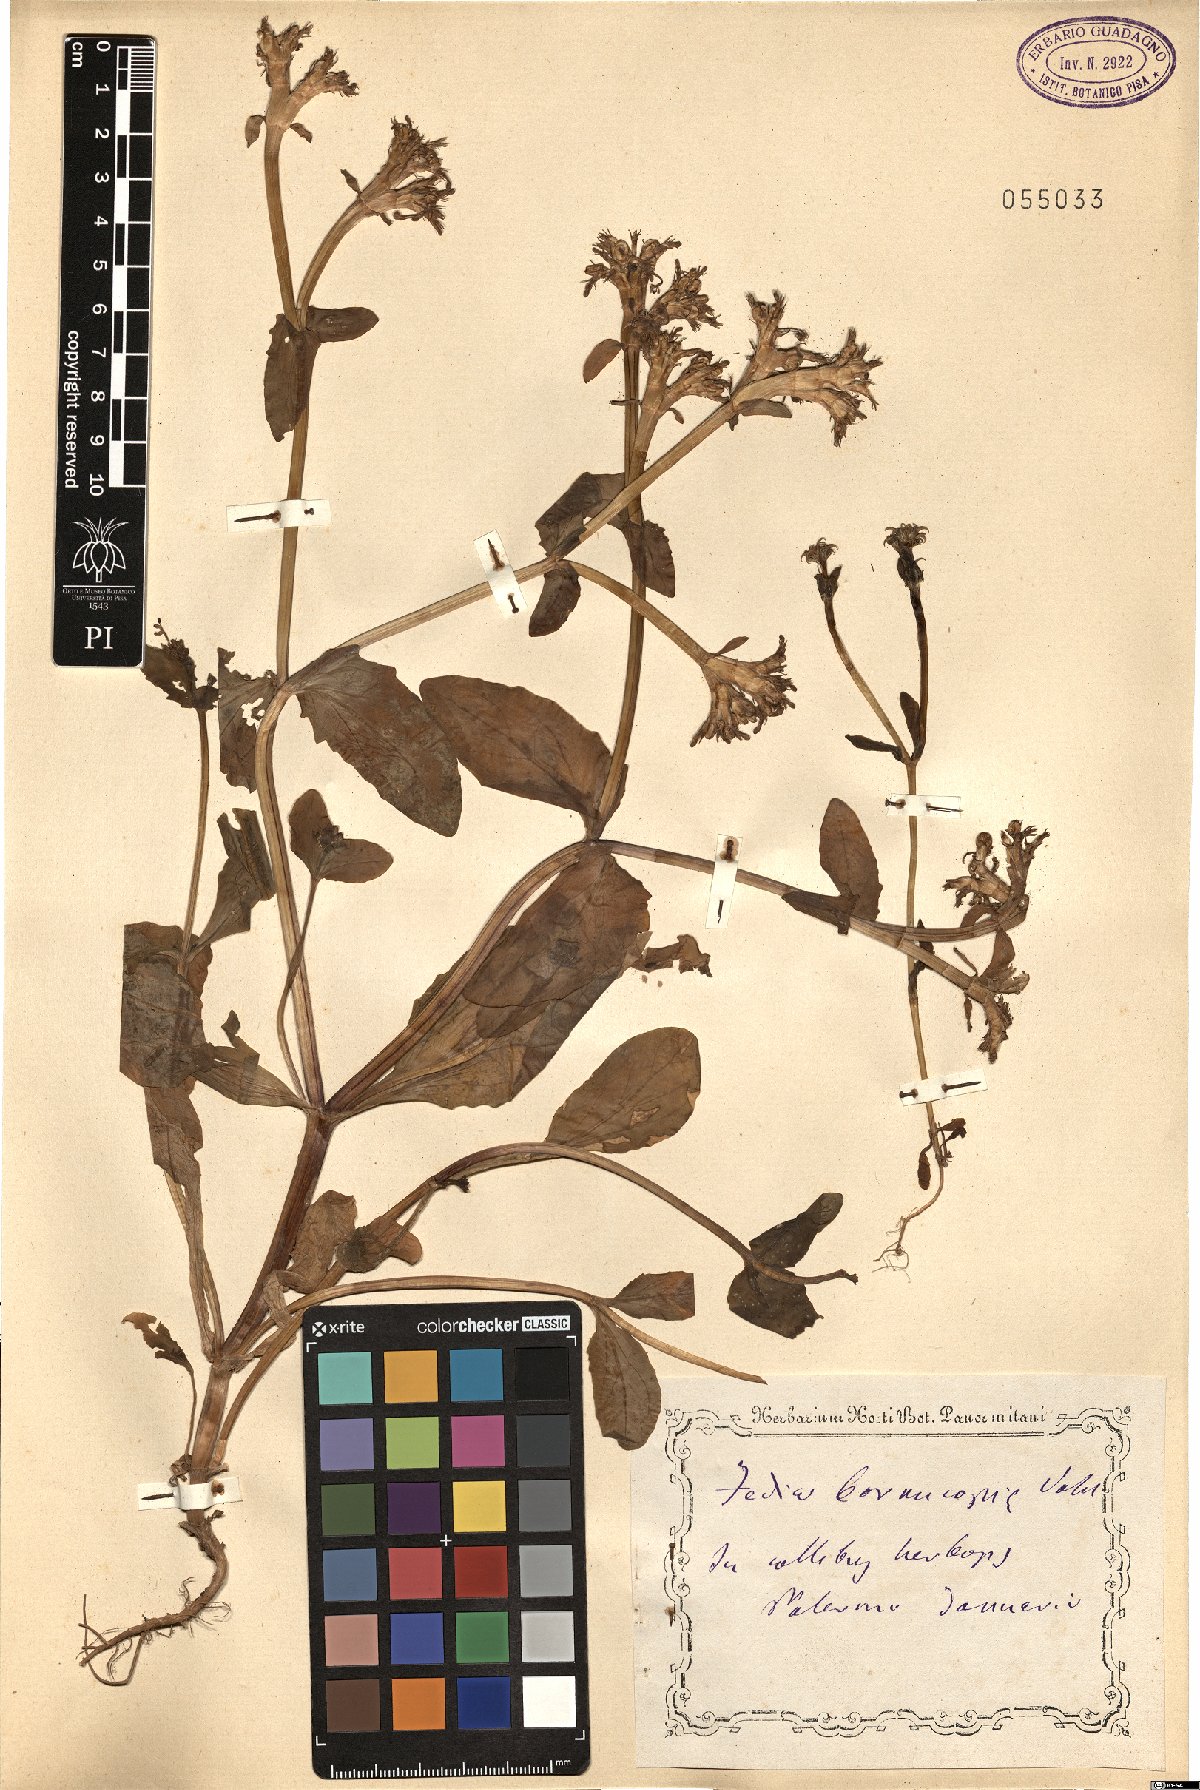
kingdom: Plantae
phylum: Tracheophyta
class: Magnoliopsida
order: Dipsacales
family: Caprifoliaceae
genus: Fedia
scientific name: Fedia cornucopiae
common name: Horn-of-plenty
